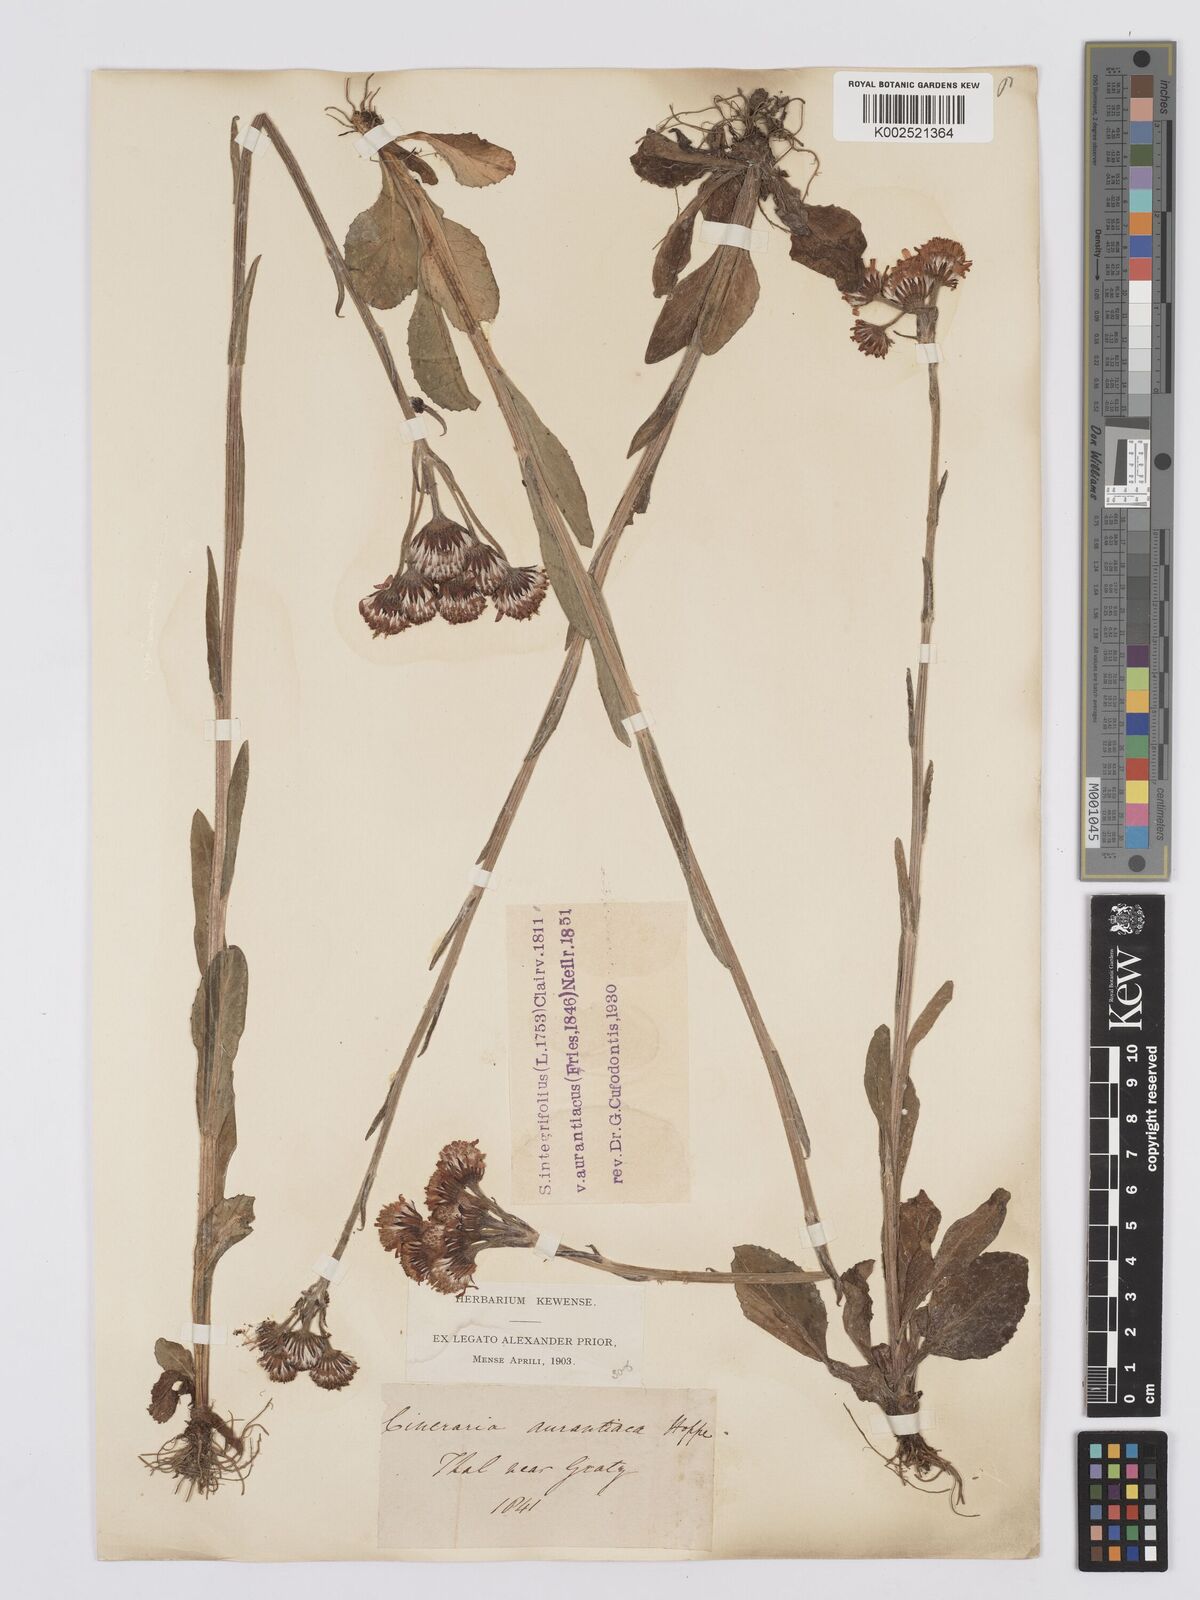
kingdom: Plantae
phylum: Tracheophyta
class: Magnoliopsida
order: Asterales
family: Asteraceae
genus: Tephroseris
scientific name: Tephroseris aurantiaca
